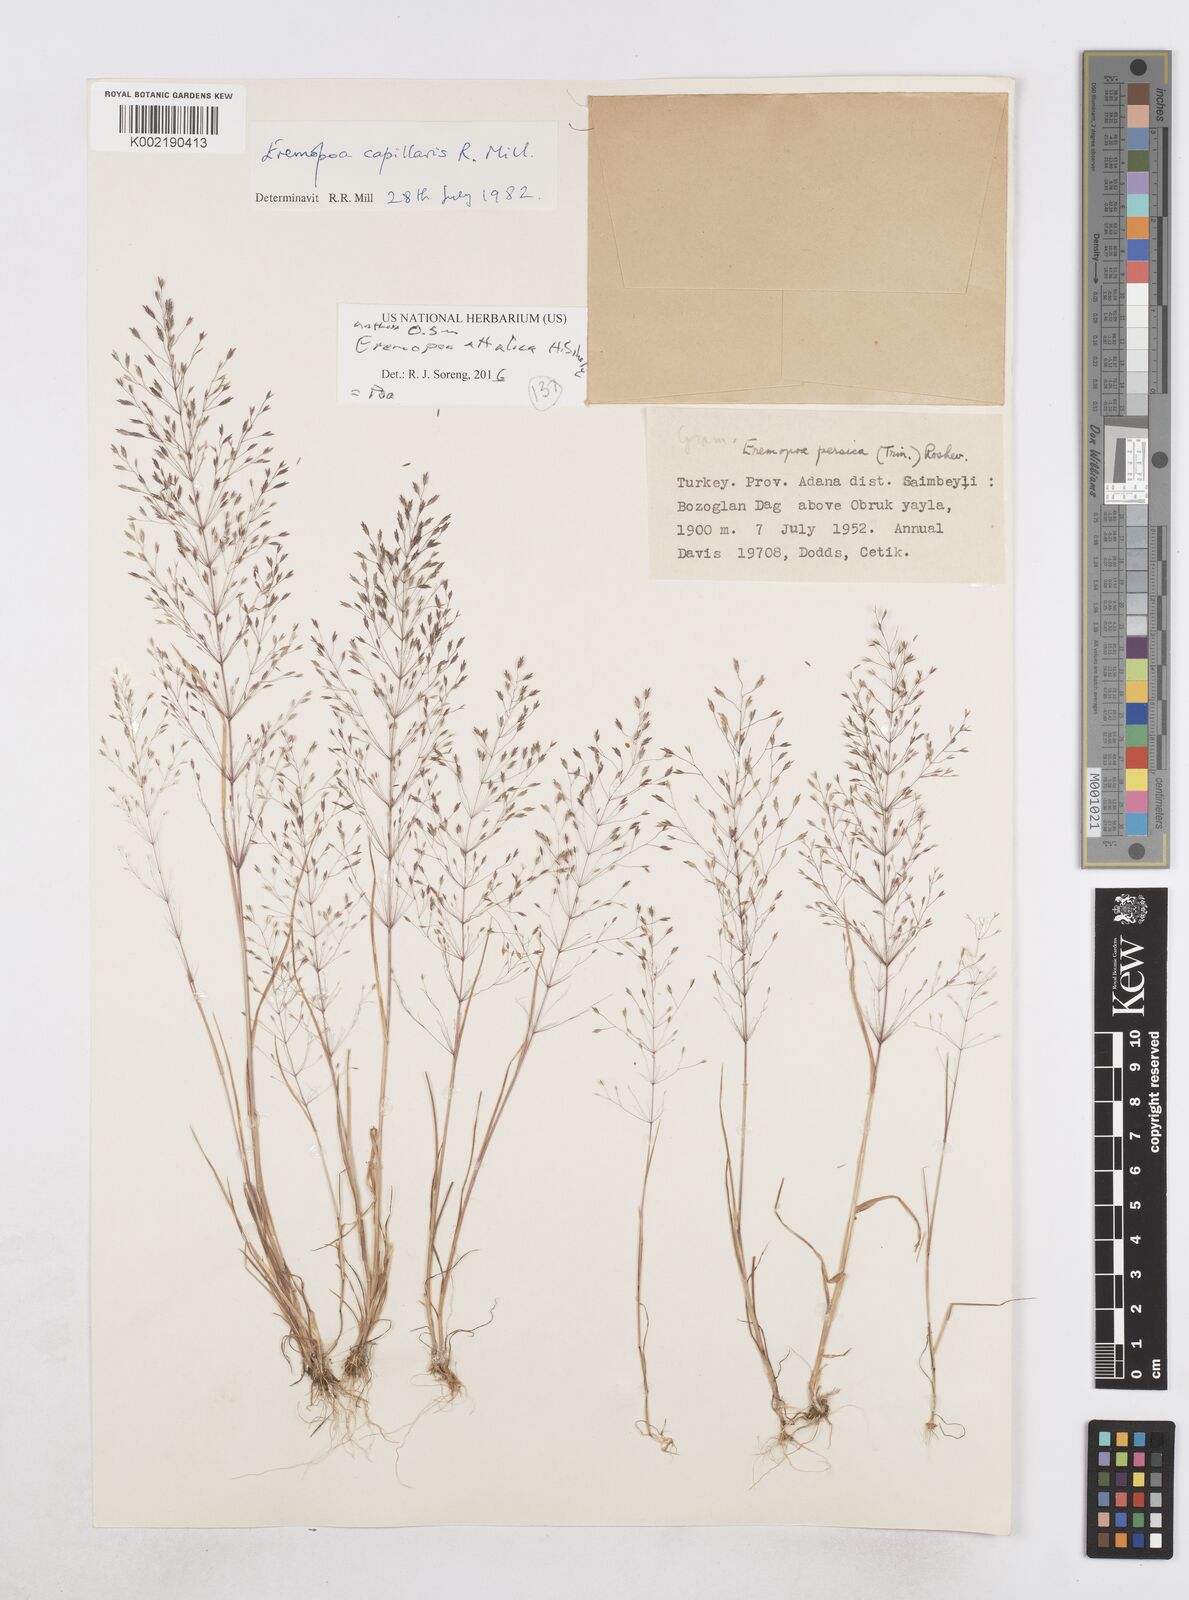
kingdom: Plantae
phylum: Tracheophyta
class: Liliopsida
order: Poales
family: Poaceae
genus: Poa
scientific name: Poa diaphora
